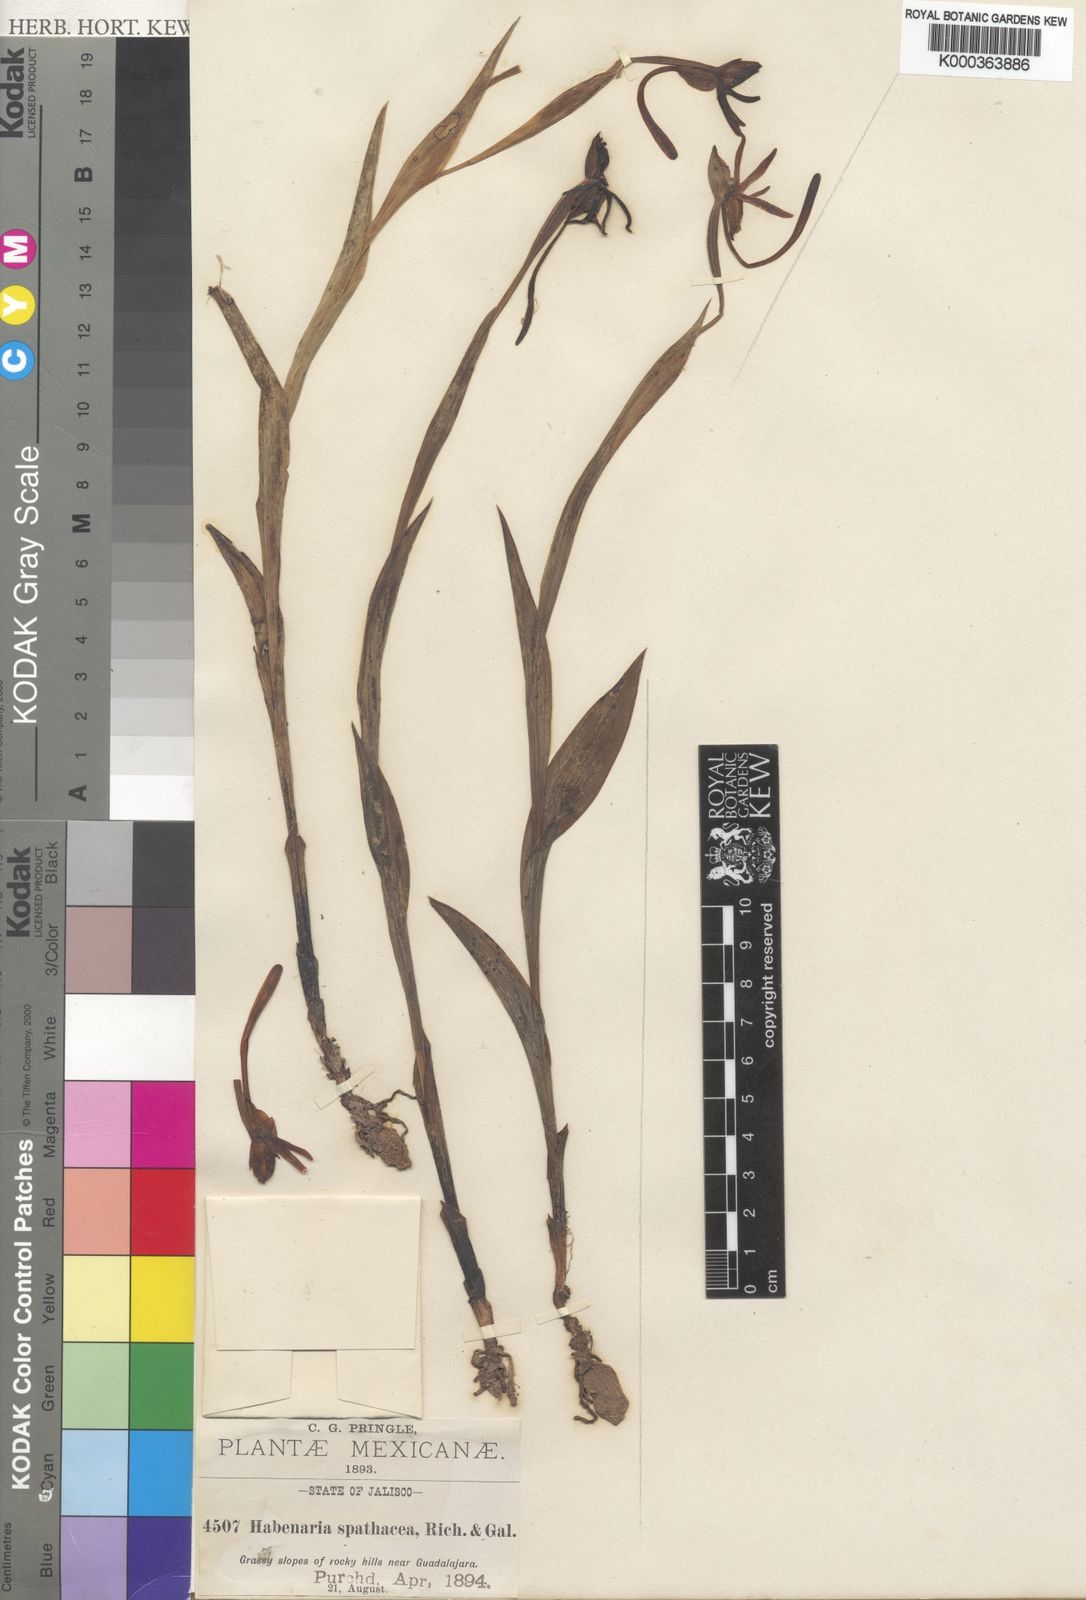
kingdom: Plantae
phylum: Tracheophyta
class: Liliopsida
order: Asparagales
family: Orchidaceae
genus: Habenaria
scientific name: Habenaria trifida
